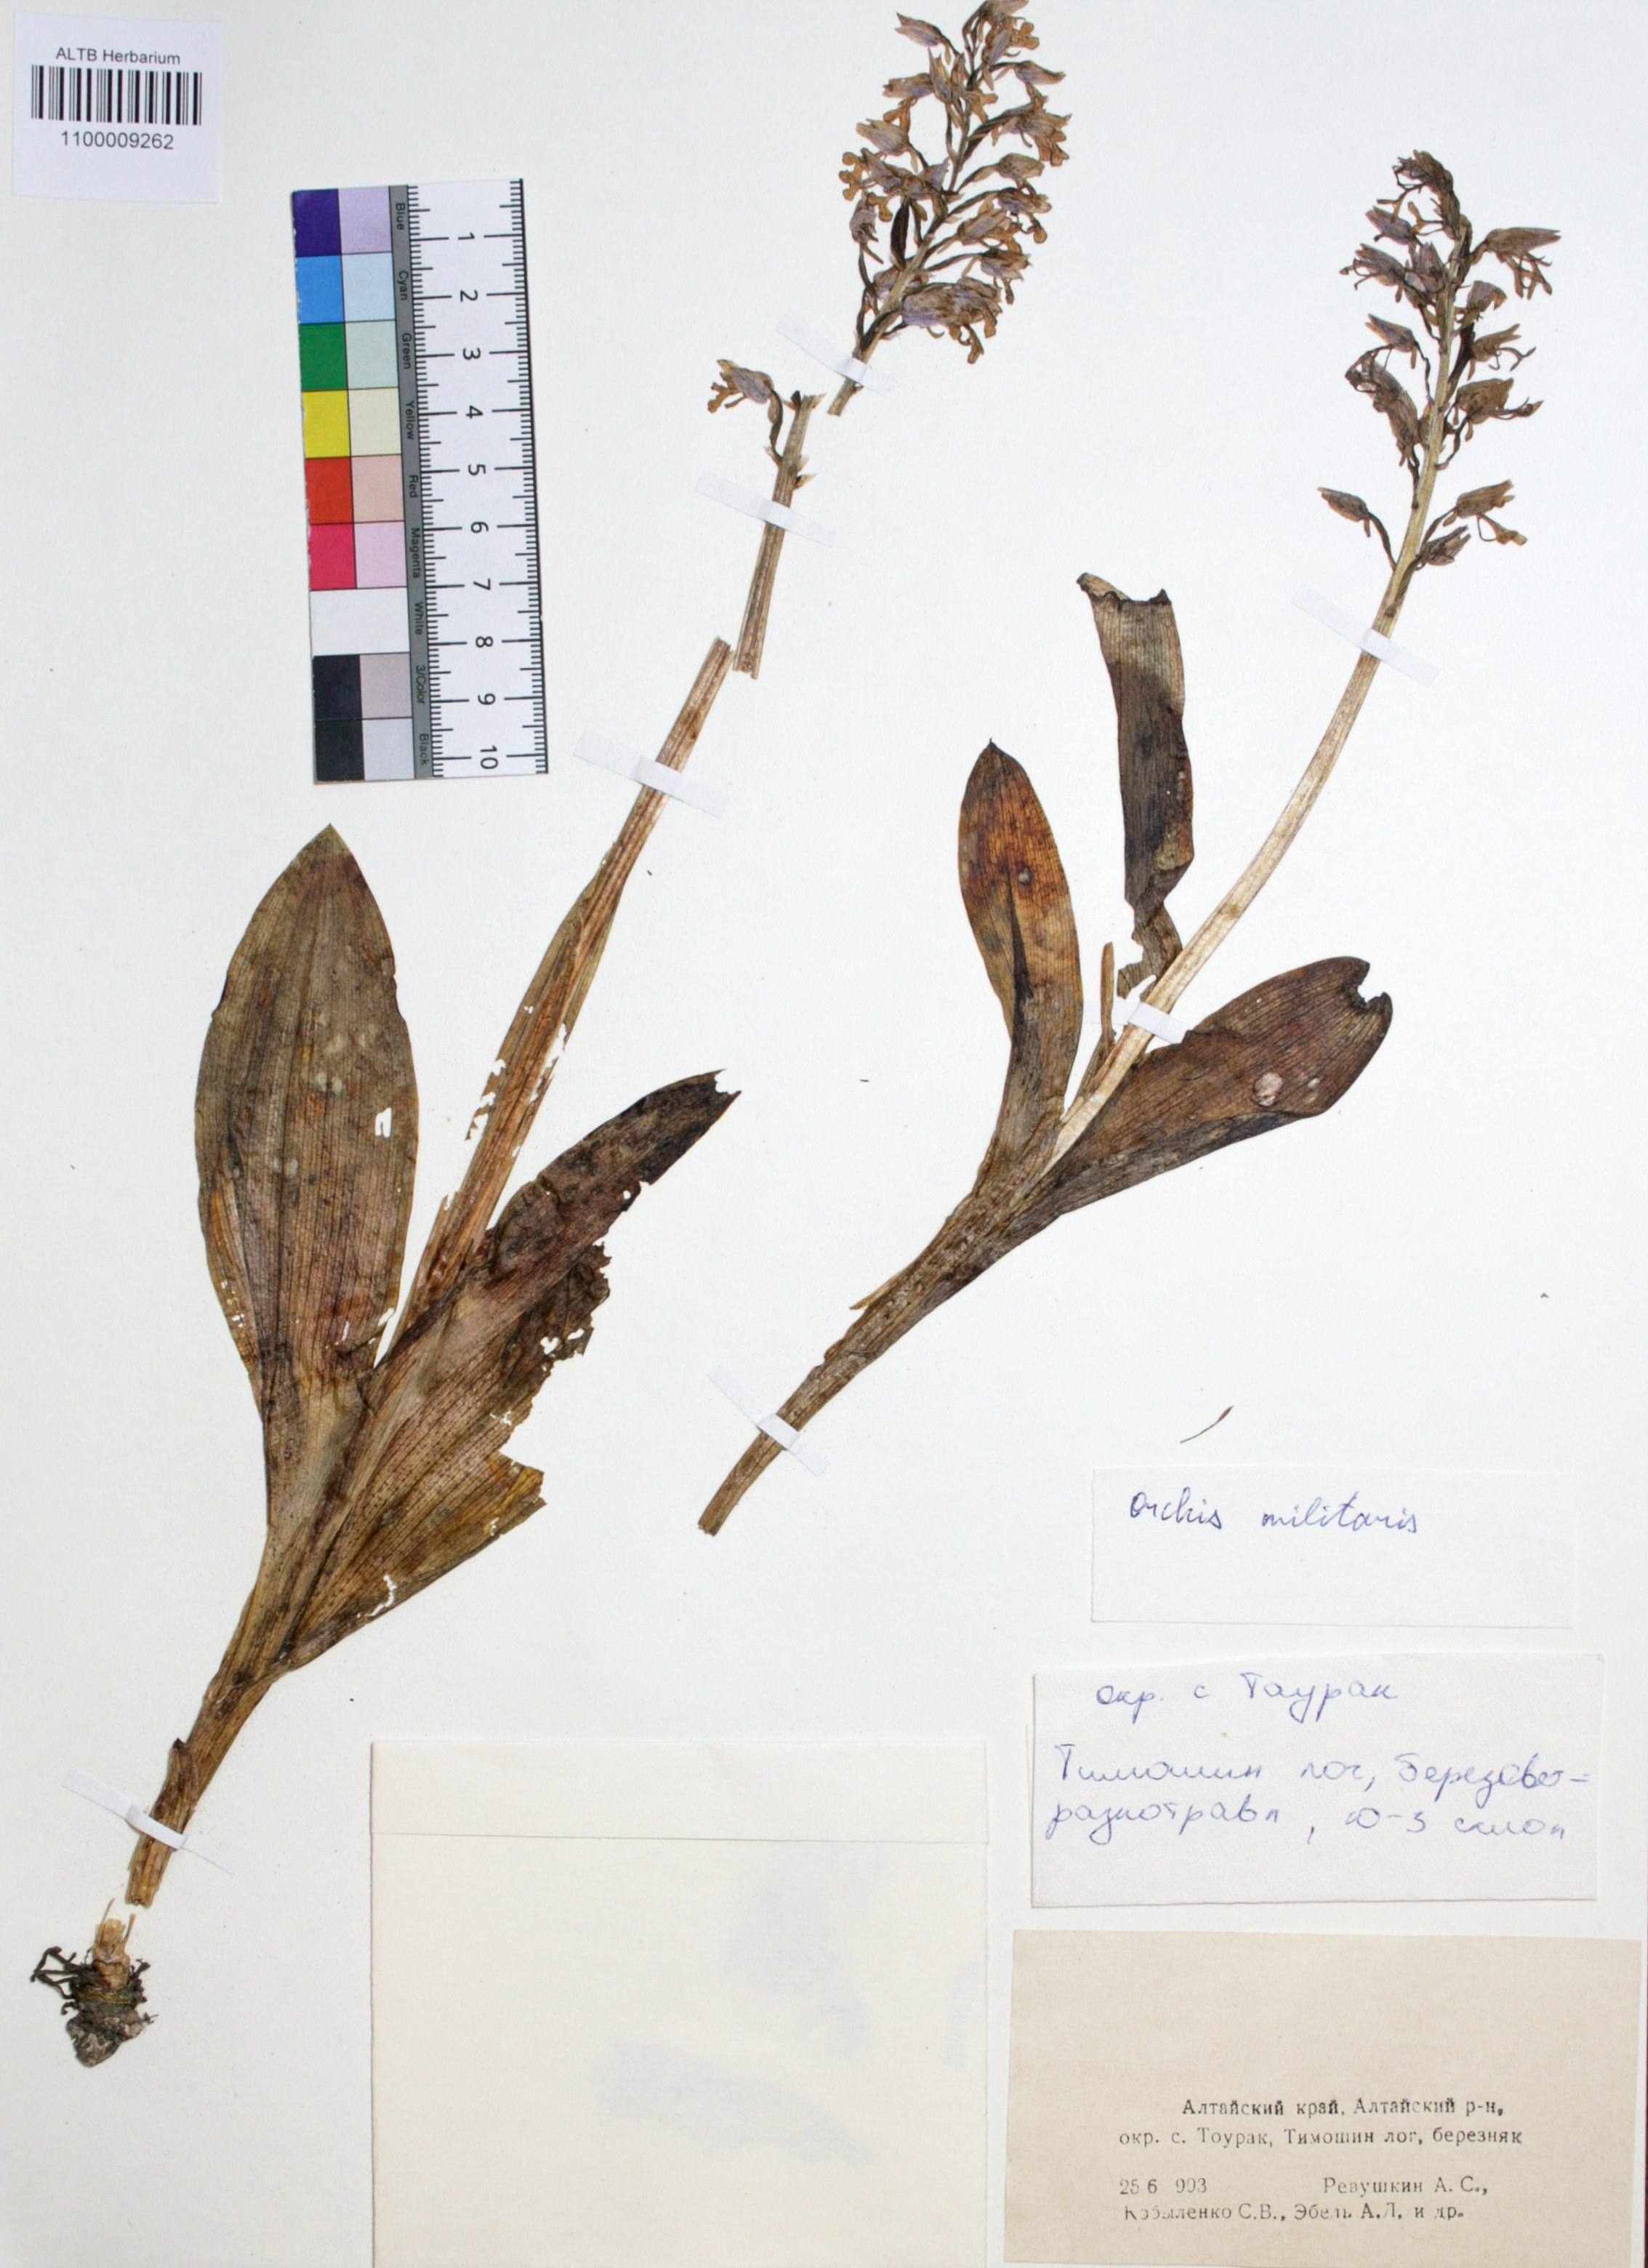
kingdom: Plantae
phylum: Tracheophyta
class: Liliopsida
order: Asparagales
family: Orchidaceae
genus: Orchis
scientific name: Orchis militaris
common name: Military orchid
